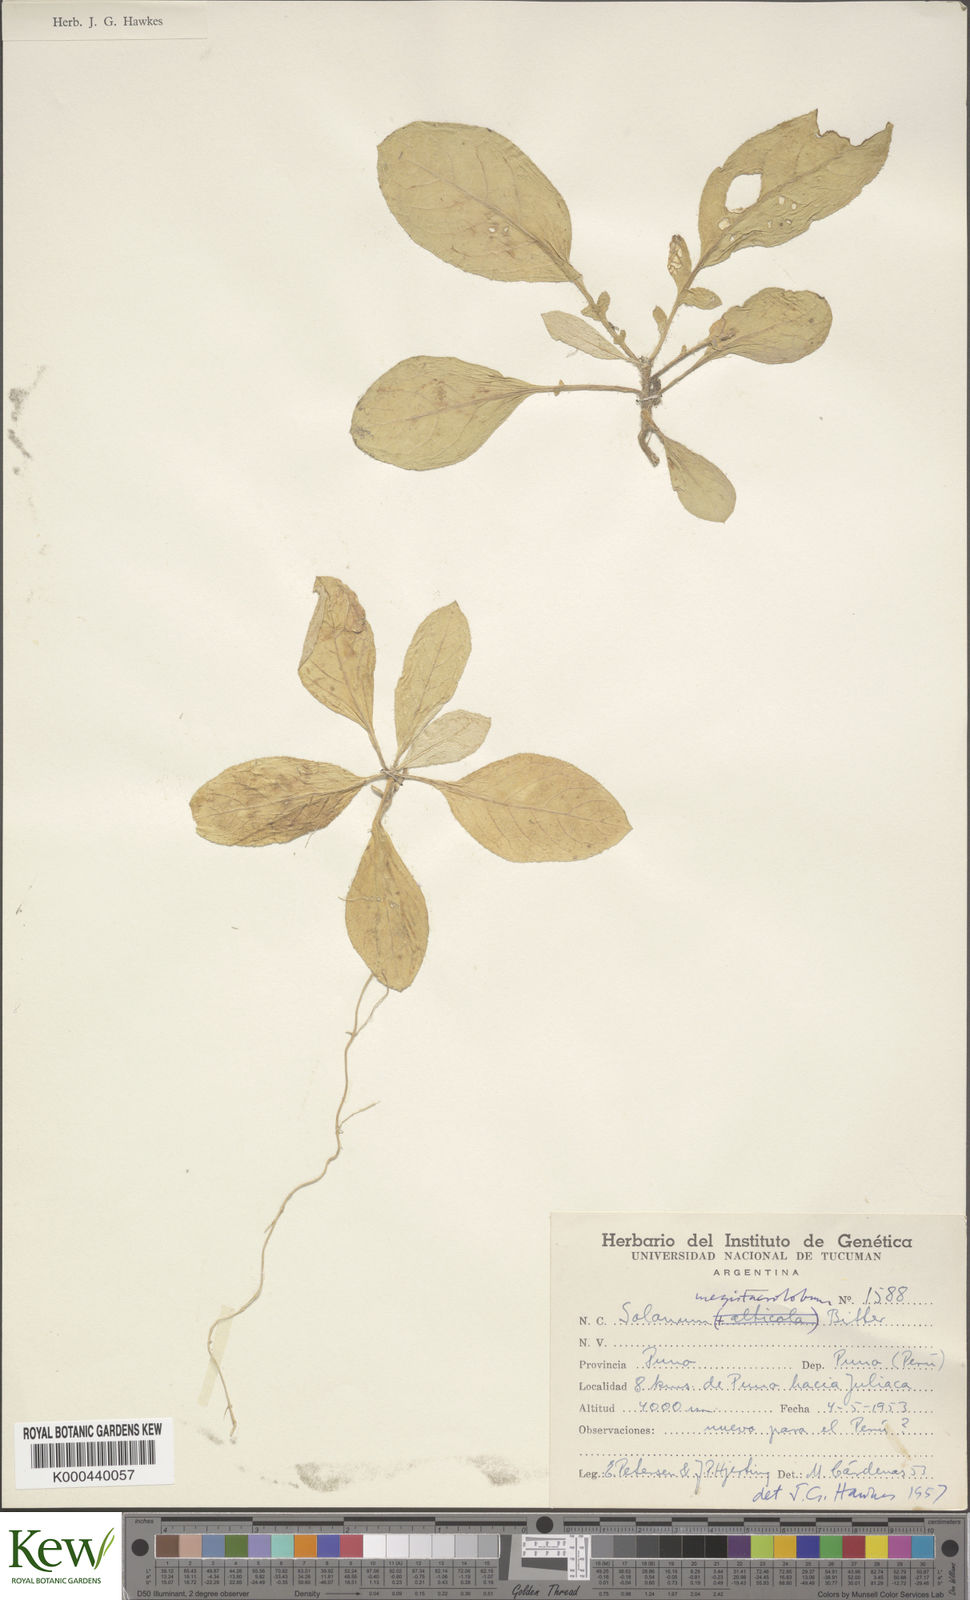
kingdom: Plantae
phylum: Tracheophyta
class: Magnoliopsida
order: Solanales
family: Solanaceae
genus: Solanum
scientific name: Solanum boliviense
